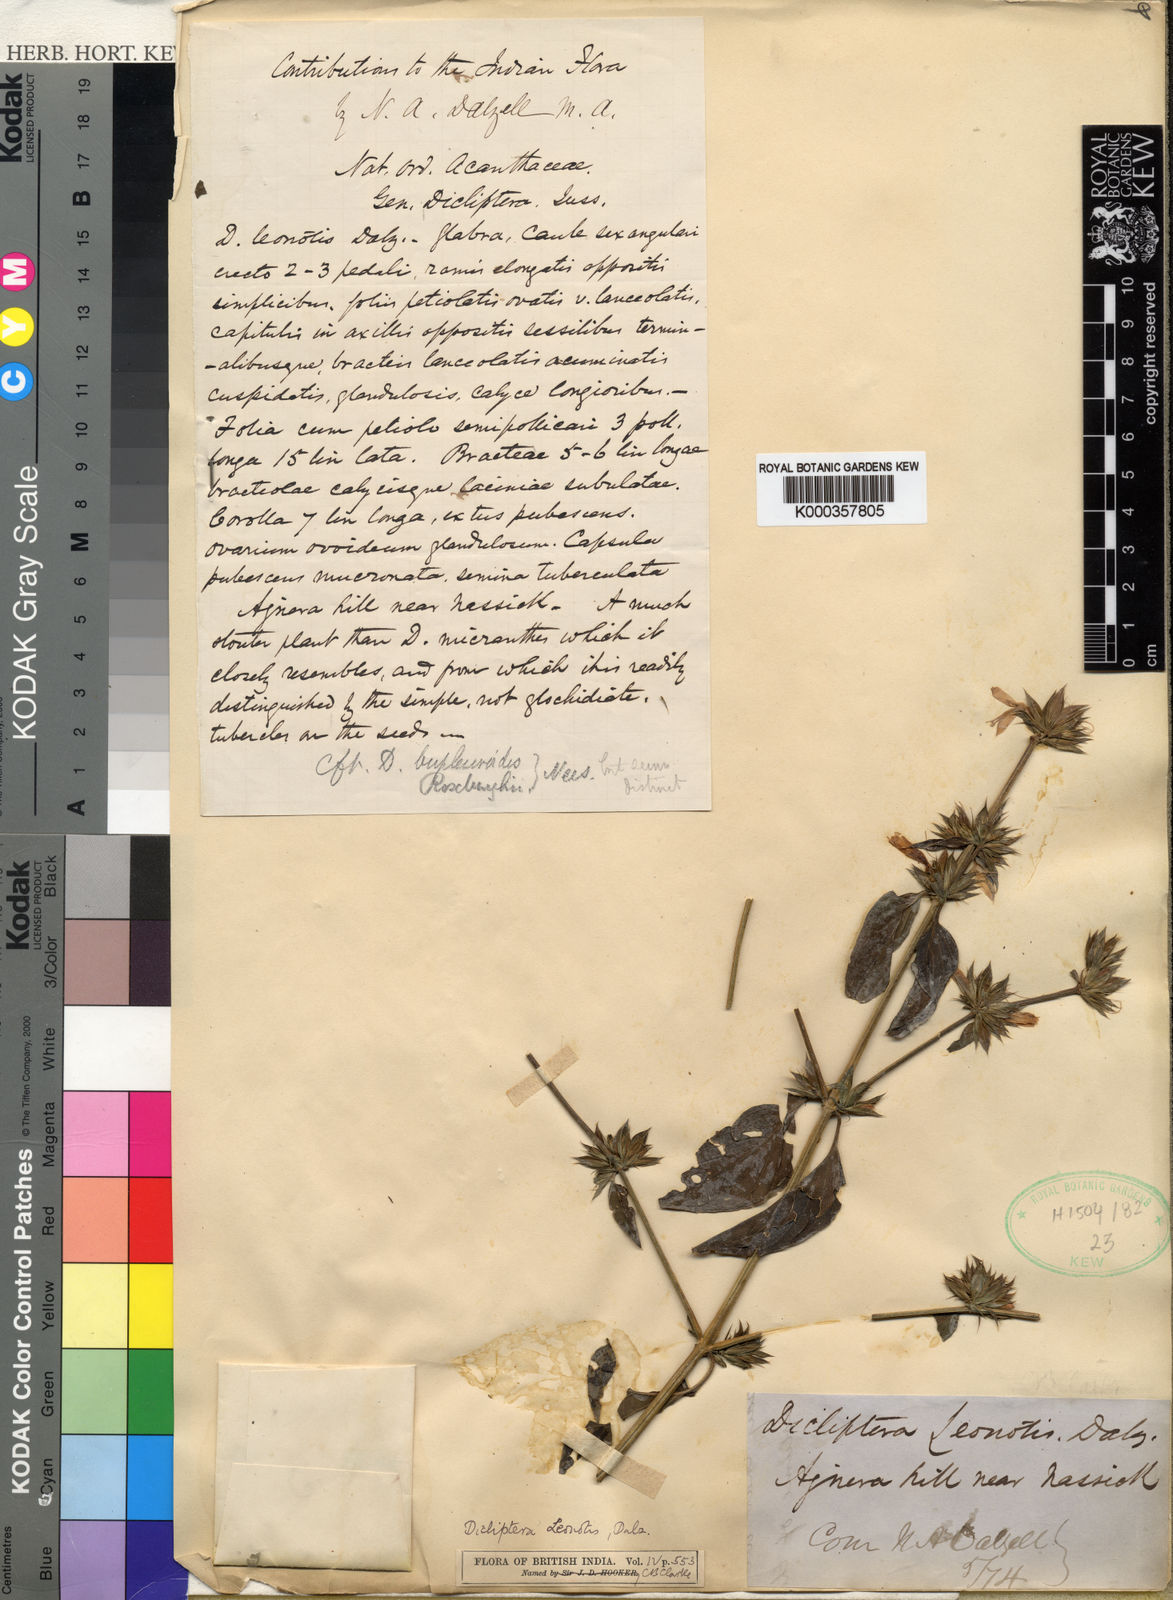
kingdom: Plantae
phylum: Tracheophyta
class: Magnoliopsida
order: Lamiales
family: Acanthaceae
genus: Dicliptera
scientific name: Dicliptera leonotis
